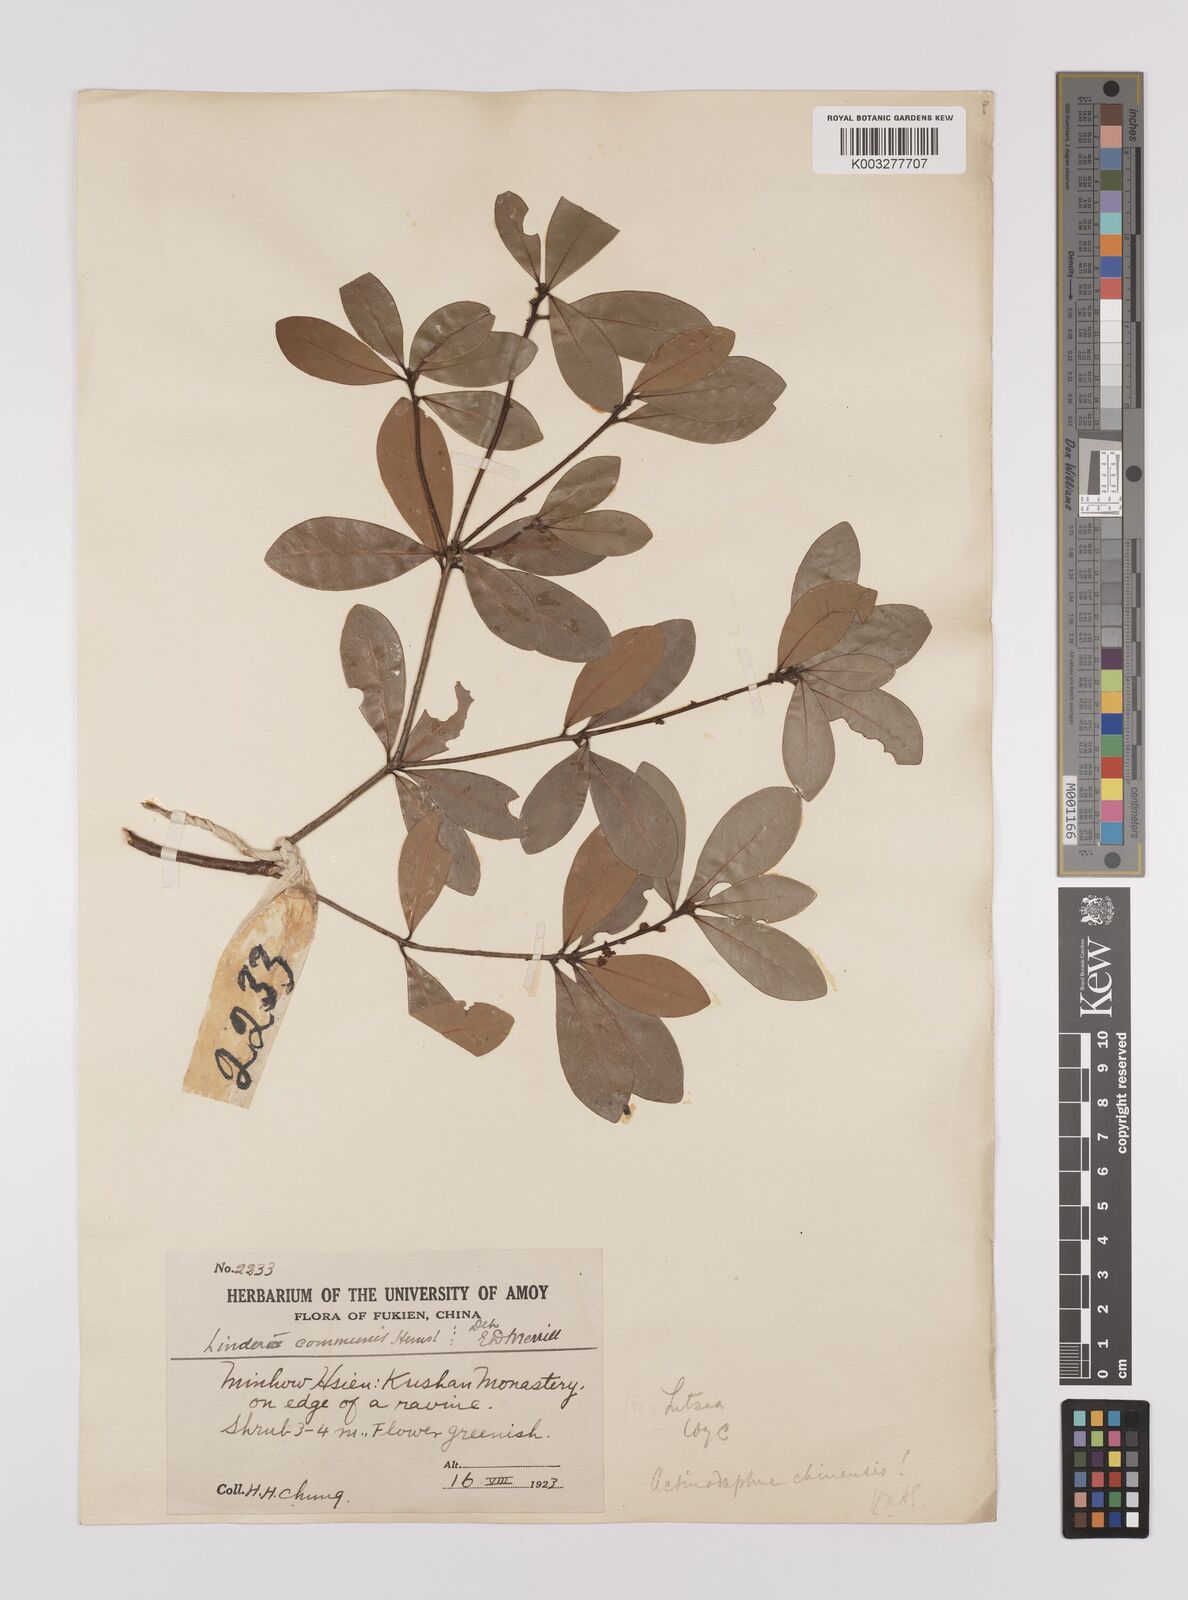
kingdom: Plantae
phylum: Tracheophyta
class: Magnoliopsida
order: Laurales
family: Lauraceae
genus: Litsea
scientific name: Litsea rotundifolia
